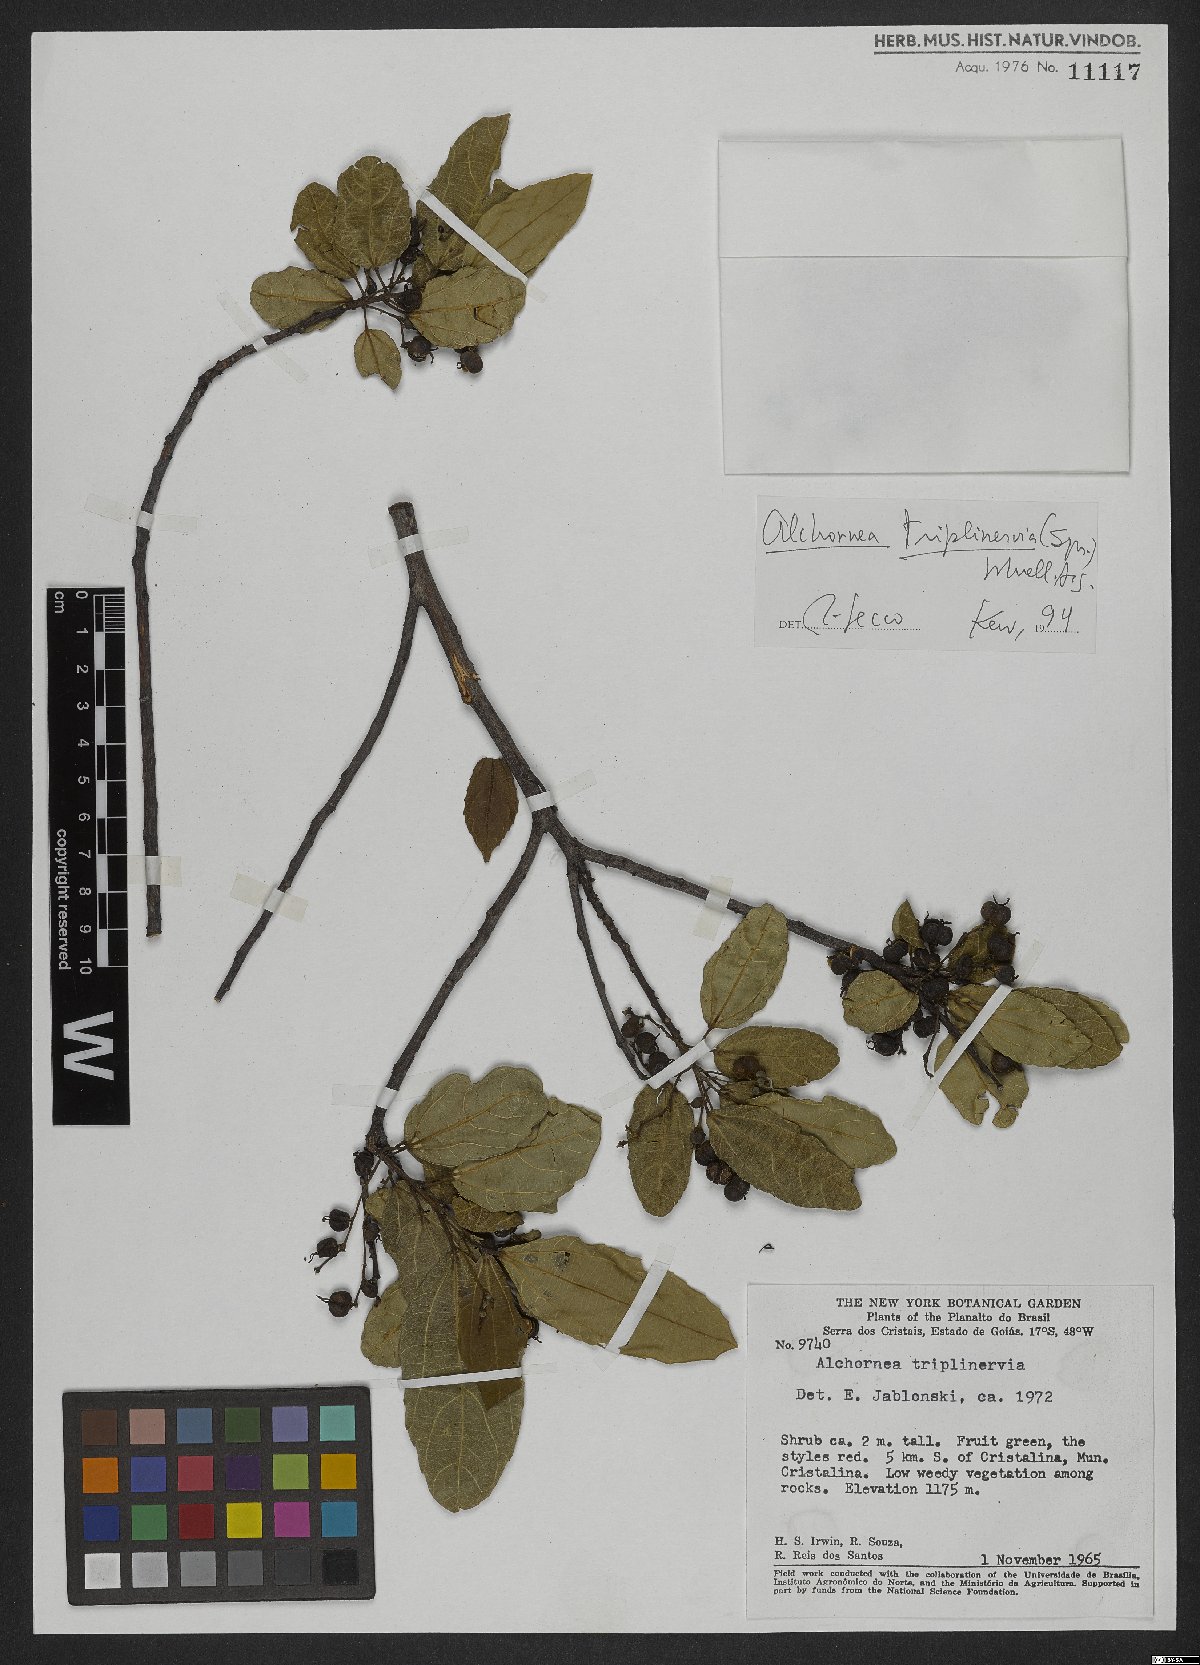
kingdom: Plantae
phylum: Tracheophyta
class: Magnoliopsida
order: Malpighiales
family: Euphorbiaceae
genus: Alchornea
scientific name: Alchornea triplinervia
